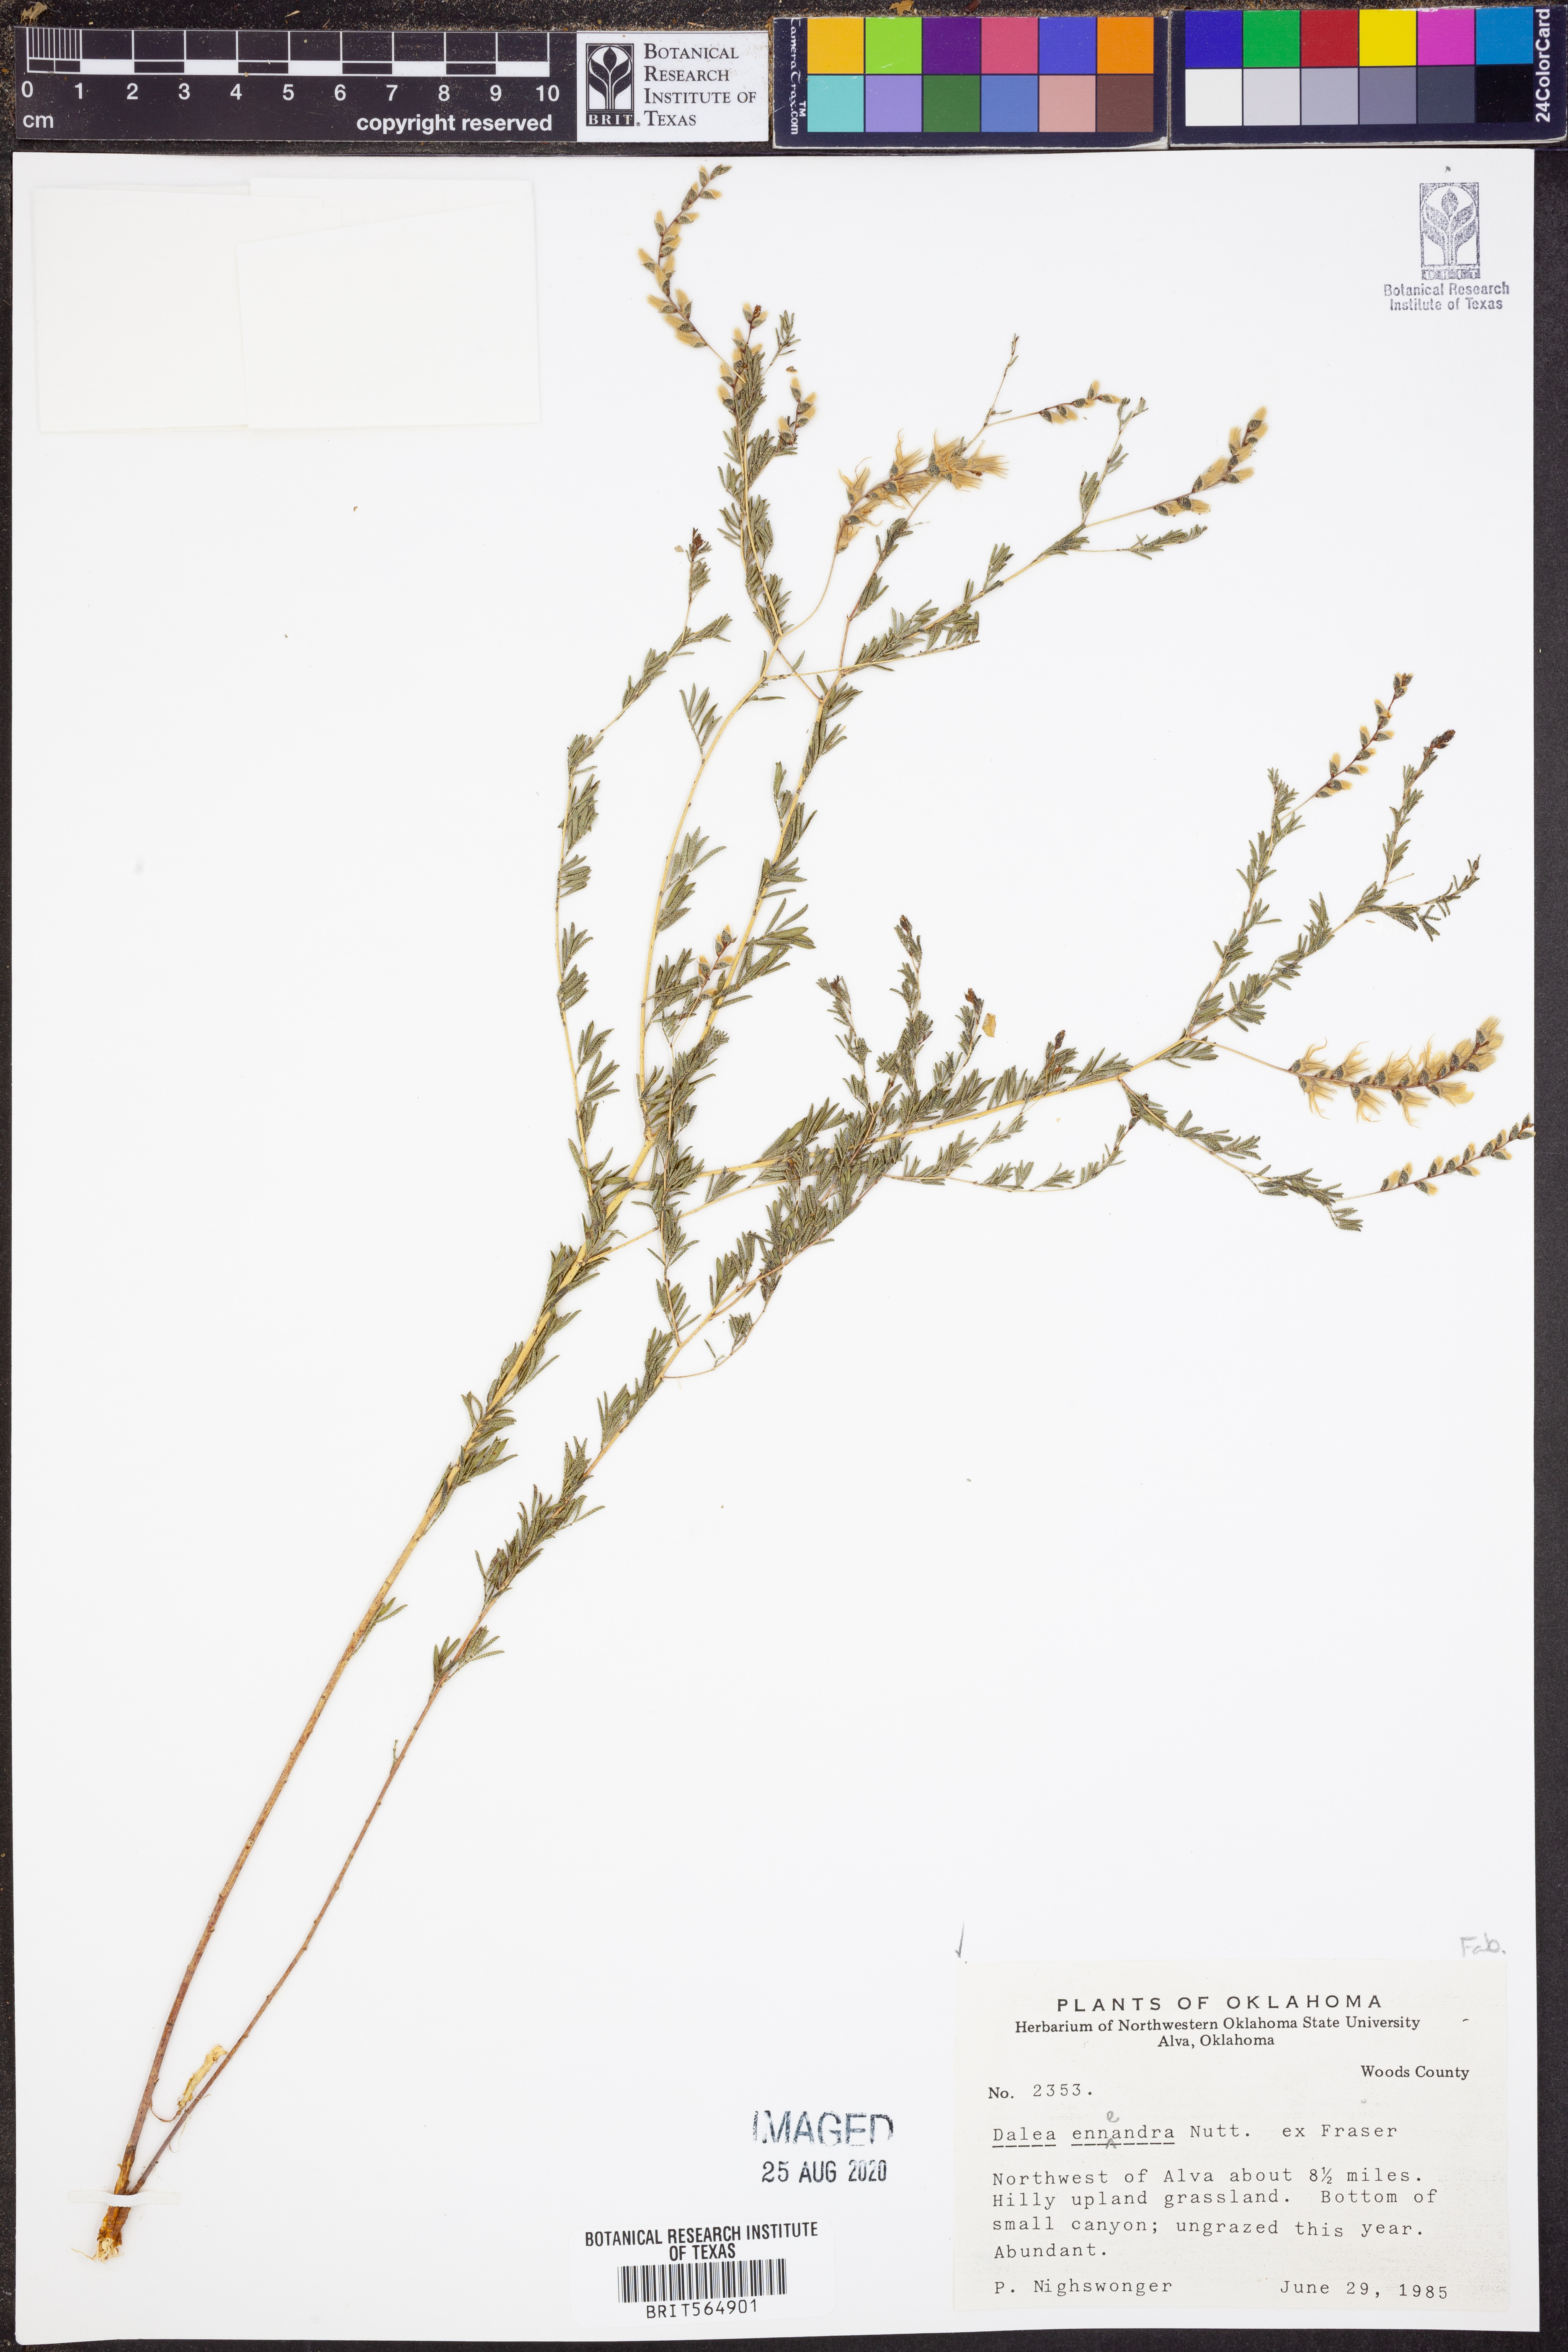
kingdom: Plantae
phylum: Tracheophyta
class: Magnoliopsida
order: Fabales
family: Fabaceae
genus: Dalea
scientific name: Dalea enneandra
